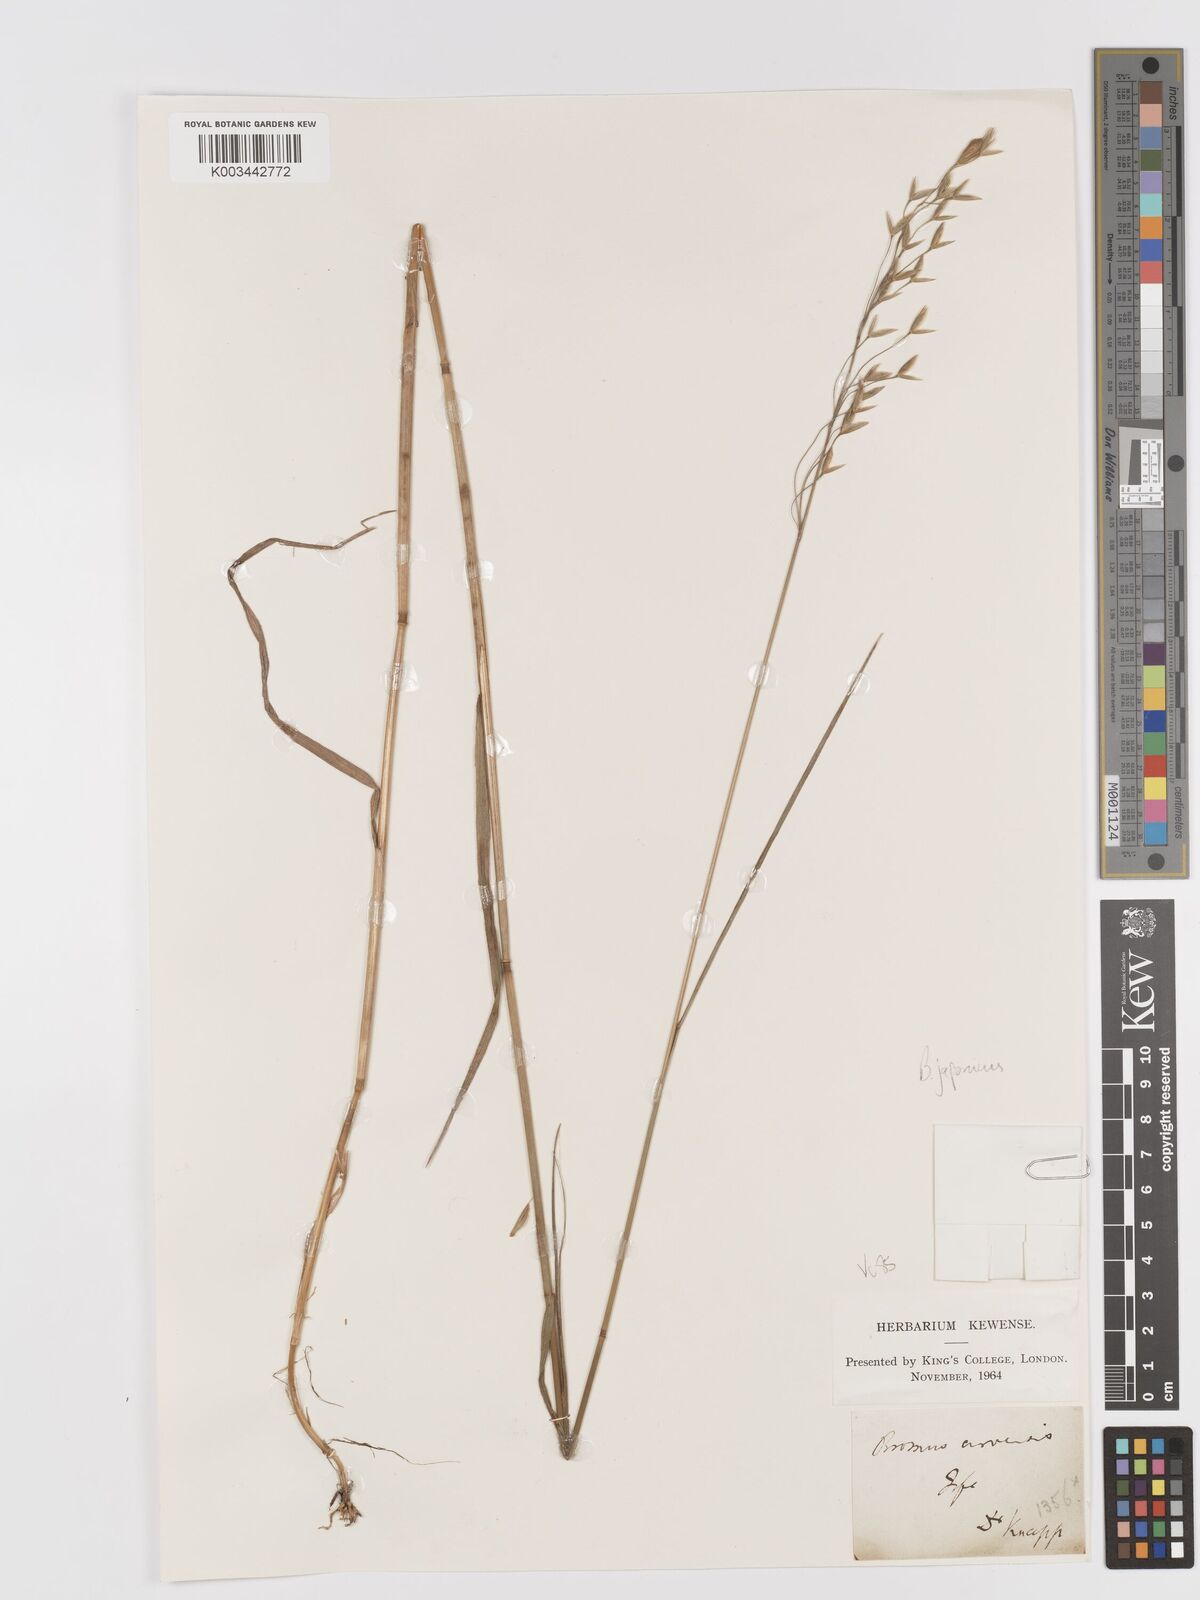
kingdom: Plantae
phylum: Tracheophyta
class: Liliopsida
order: Poales
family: Poaceae
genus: Bromus
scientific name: Bromus japonicus
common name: Japanese brome
